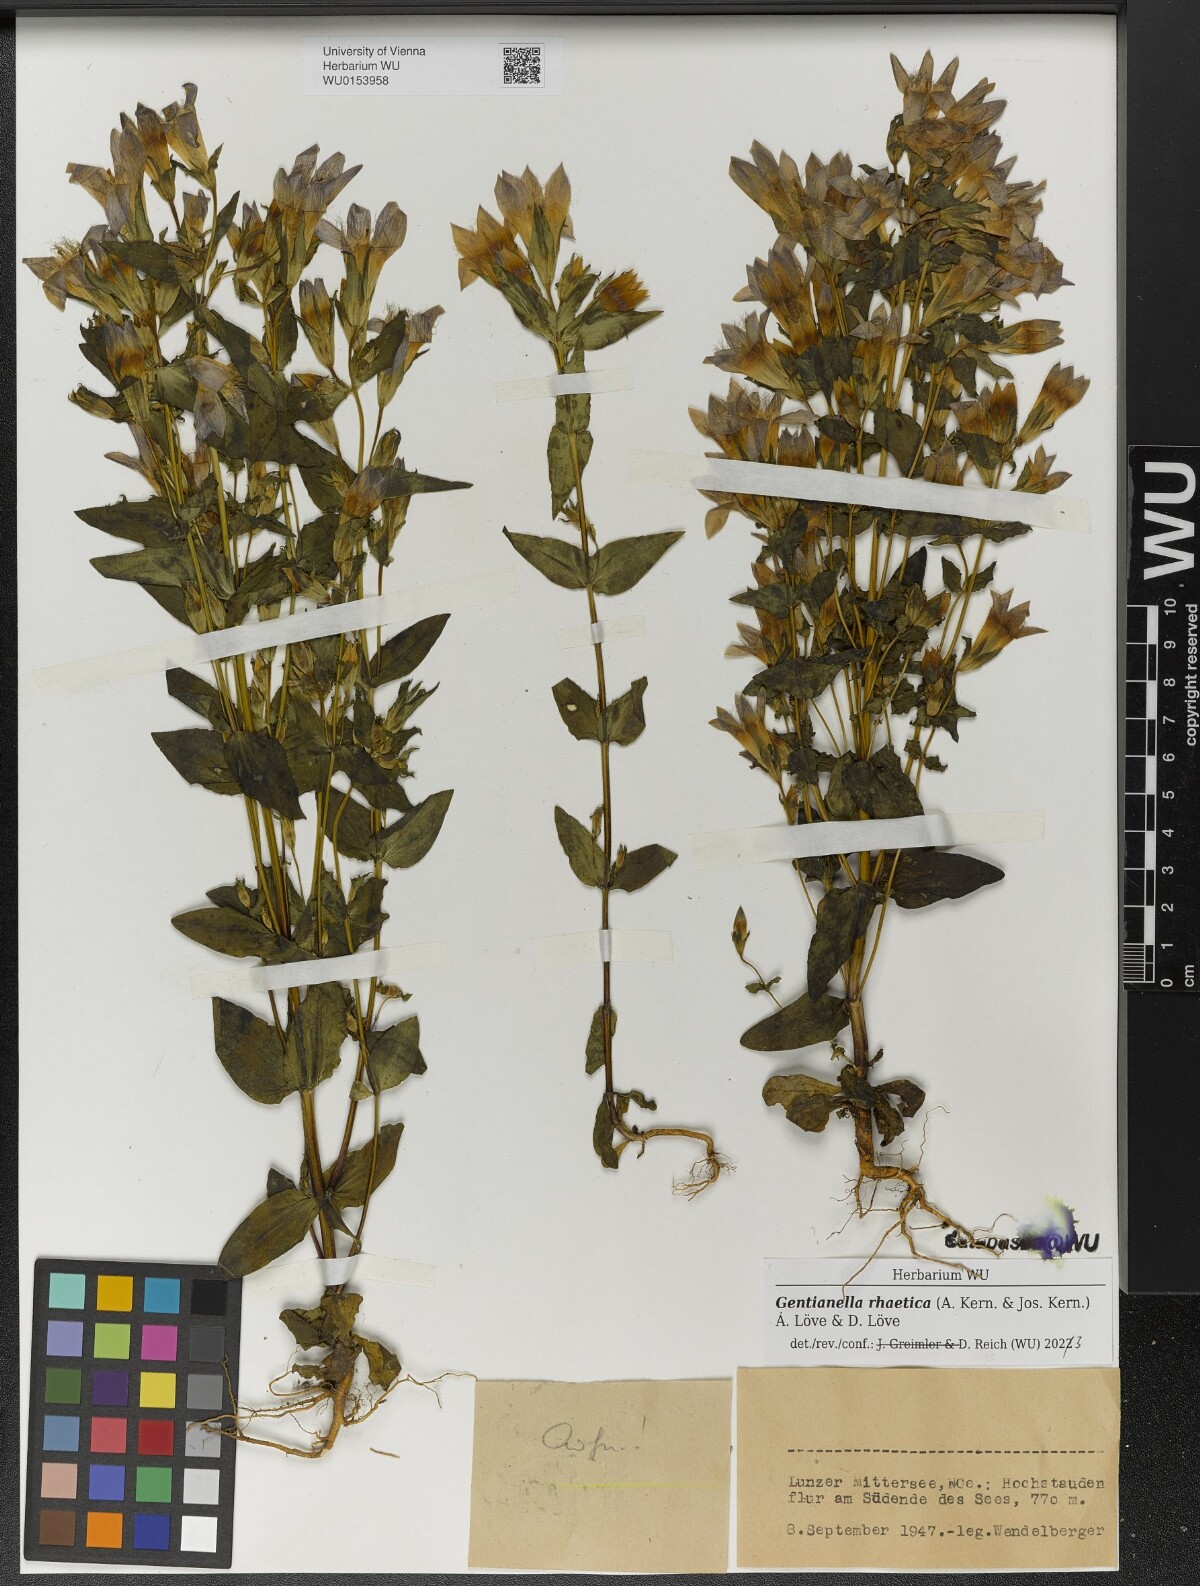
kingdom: Plantae
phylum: Tracheophyta
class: Magnoliopsida
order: Gentianales
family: Gentianaceae
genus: Gentianella
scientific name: Gentianella rhaetica
